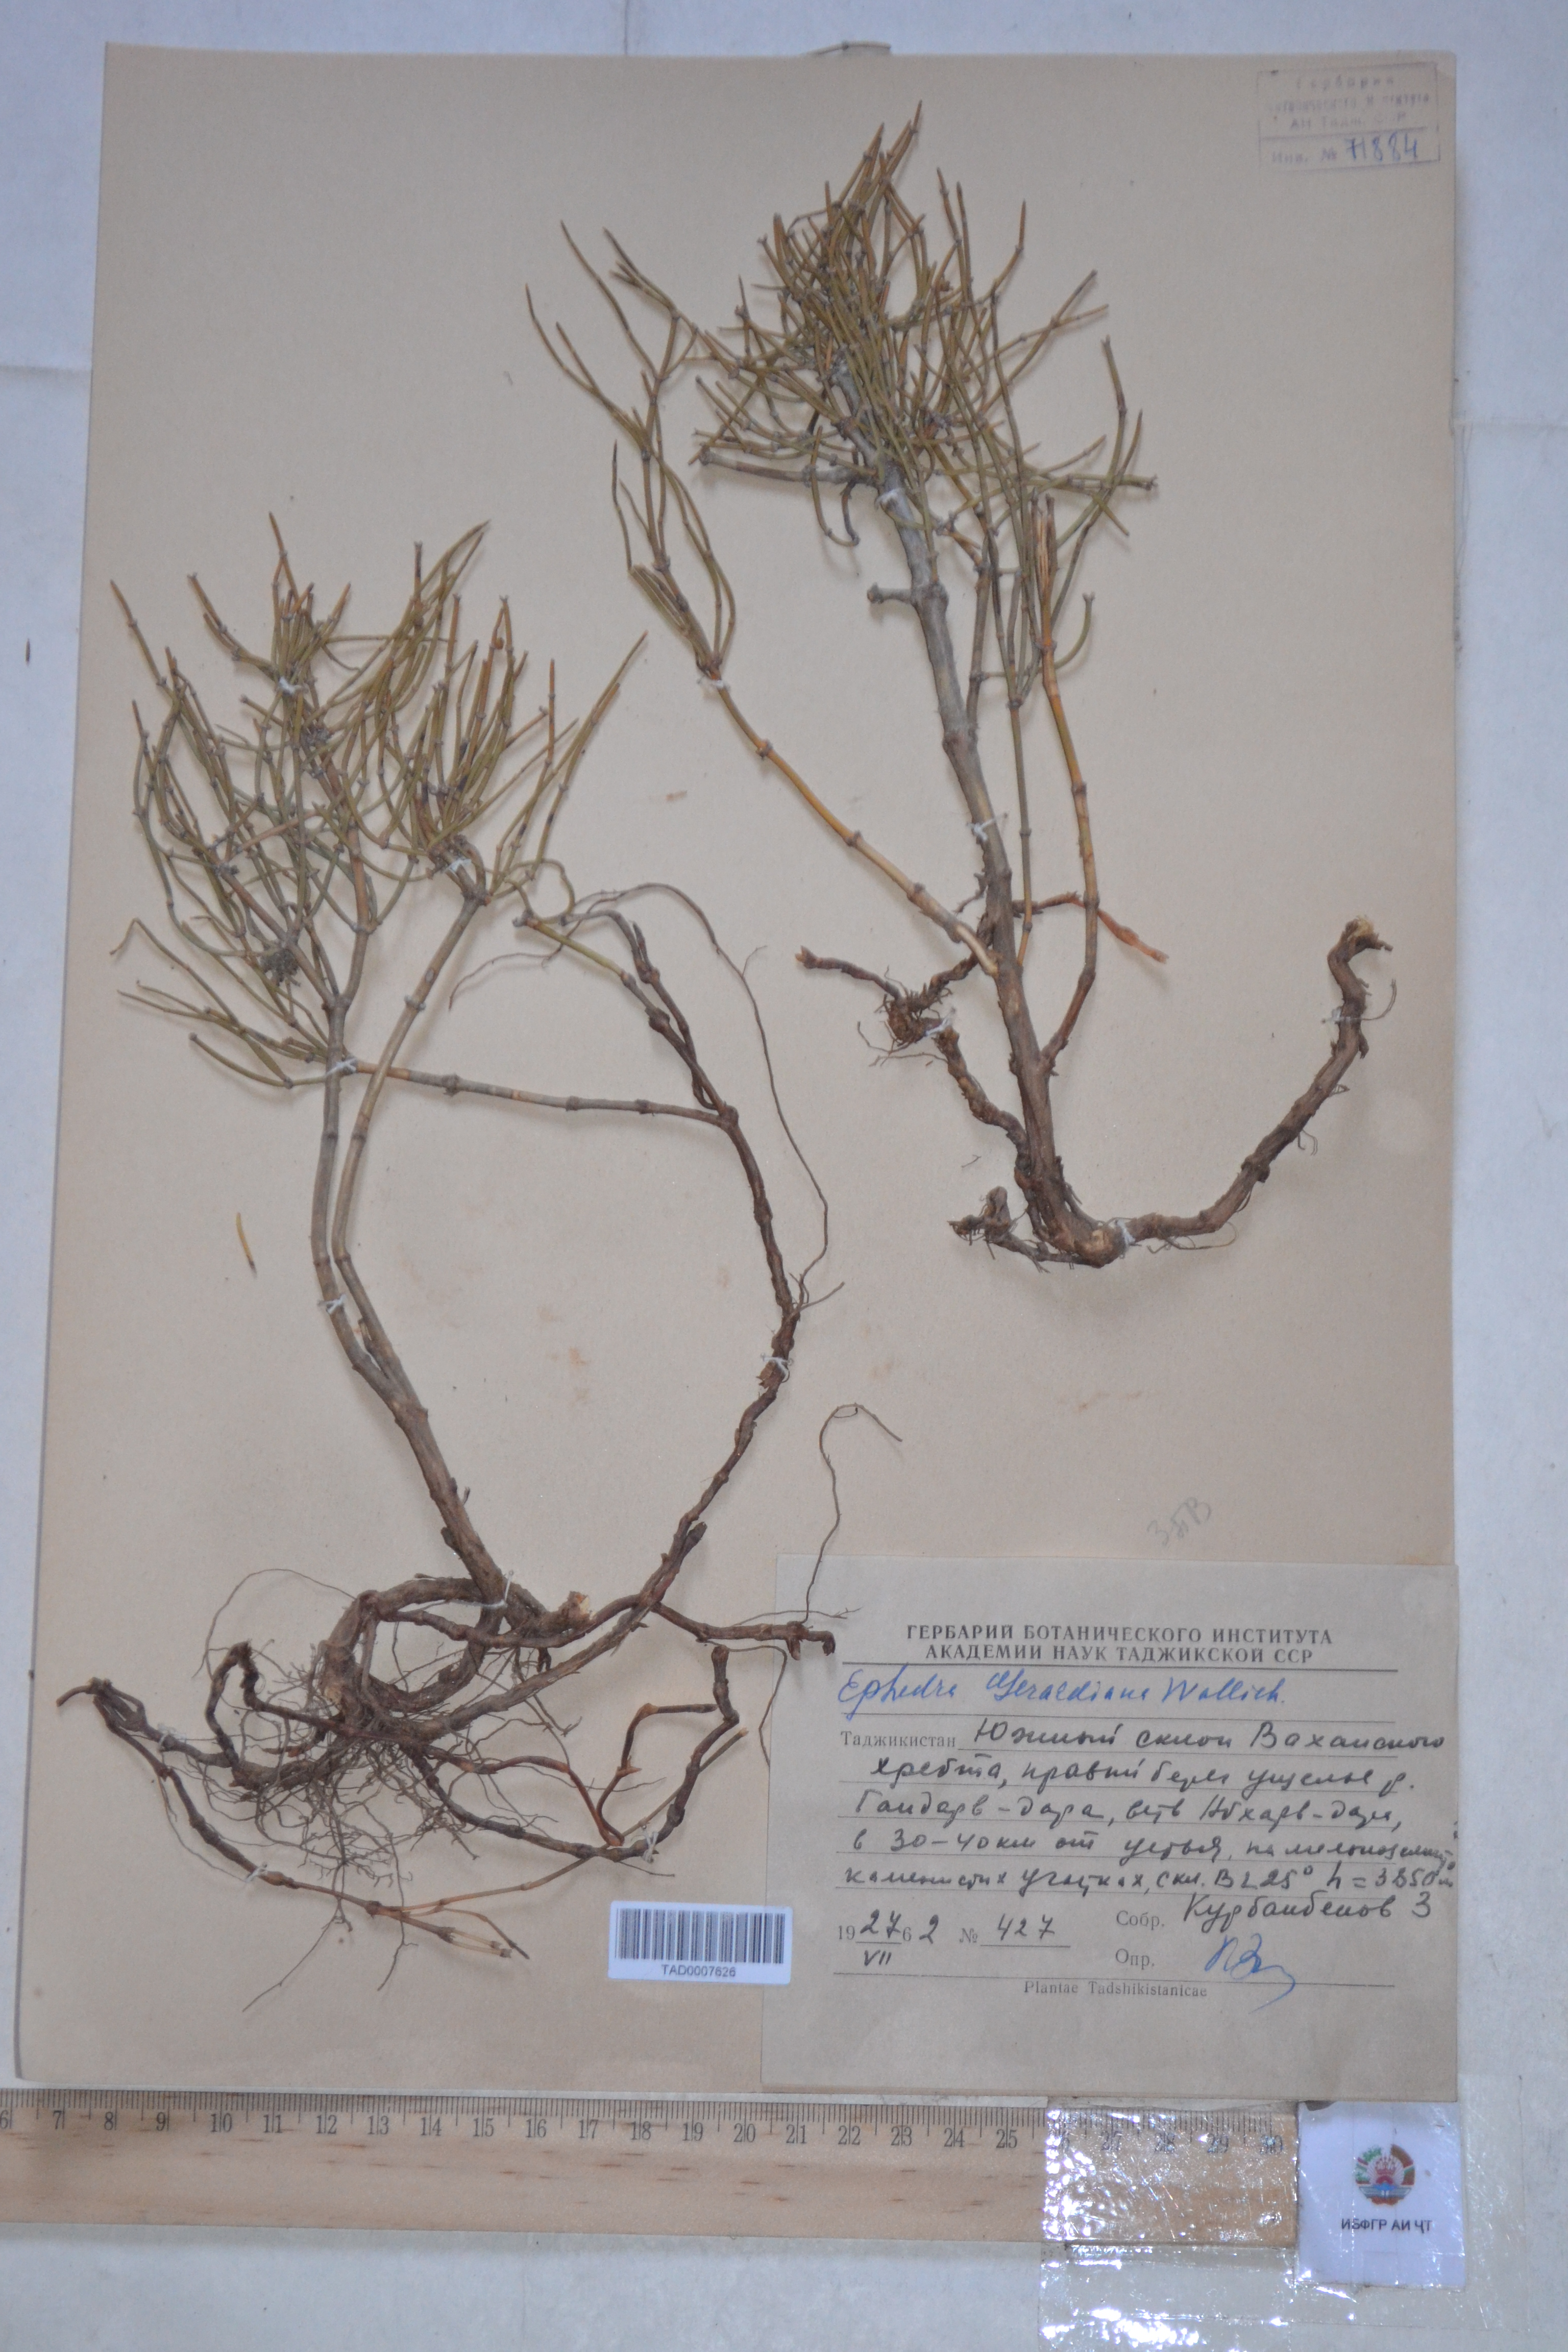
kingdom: Plantae
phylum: Tracheophyta
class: Gnetopsida
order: Ephedrales
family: Ephedraceae
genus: Ephedra
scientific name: Ephedra gerardiana
